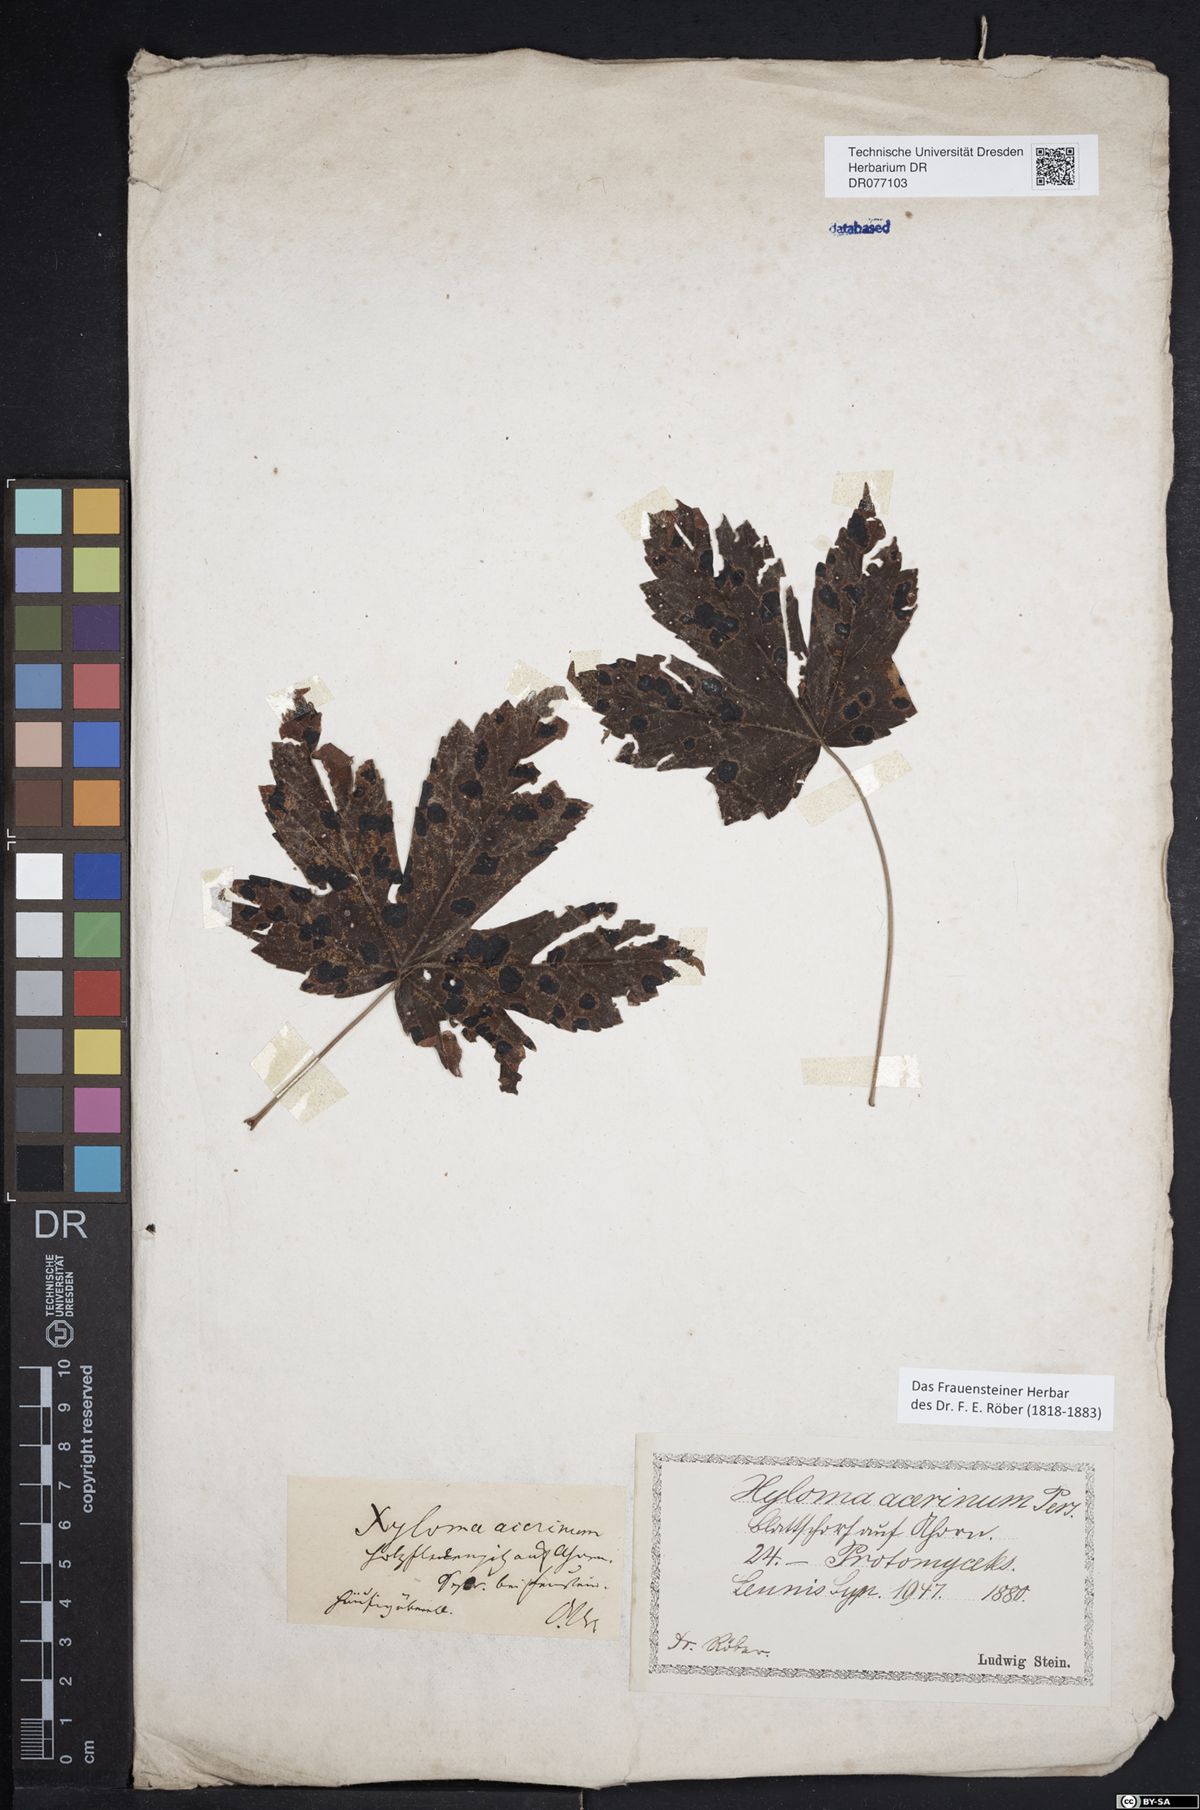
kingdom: Fungi
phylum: Ascomycota
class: Leotiomycetes
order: Rhytismatales
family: Rhytismataceae
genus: Rhytisma
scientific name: Rhytisma acerinum
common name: European tar spot
